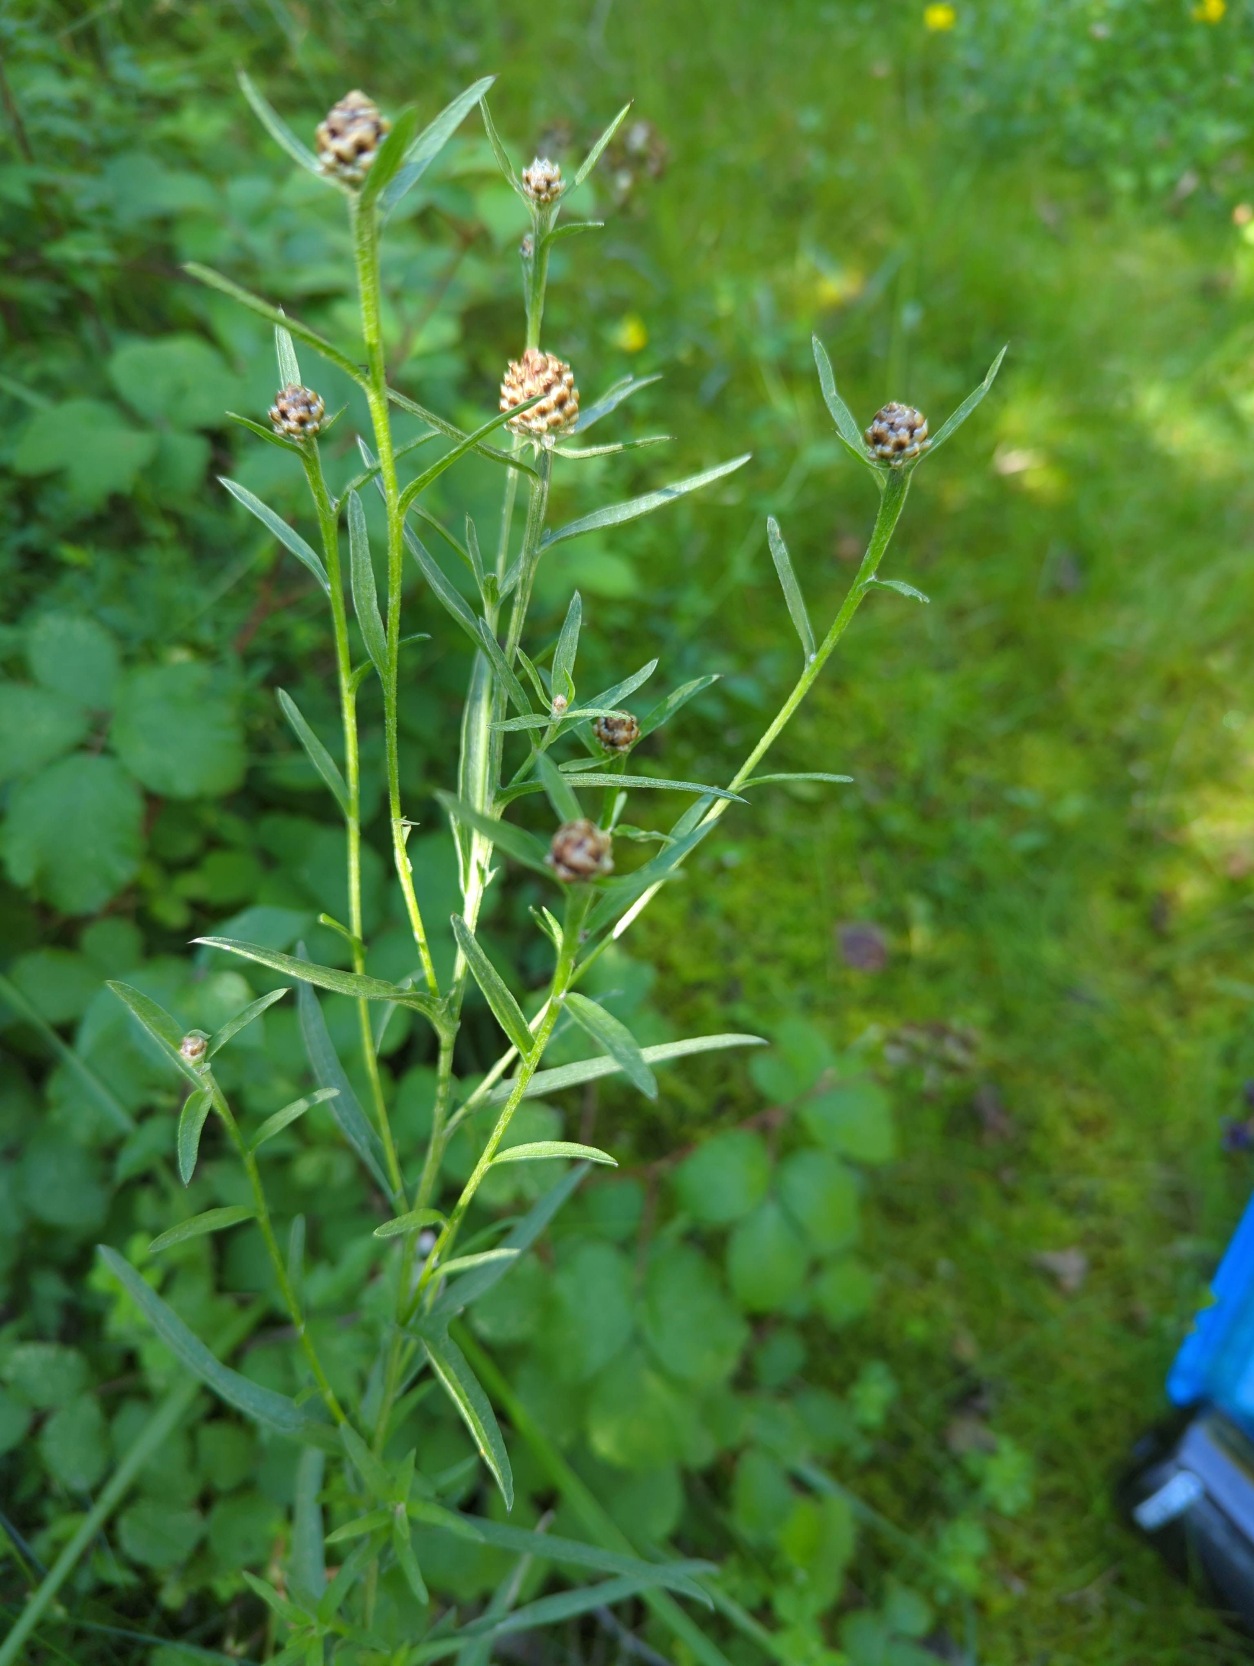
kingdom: Plantae
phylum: Tracheophyta
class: Magnoliopsida
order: Asterales
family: Asteraceae
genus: Centaurea
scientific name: Centaurea jacea
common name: Smalbladet knopurt
